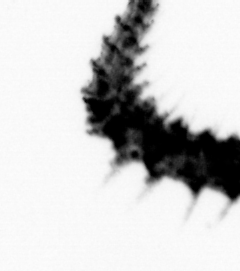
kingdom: Animalia
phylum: Annelida
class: Polychaeta
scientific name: Polychaeta
